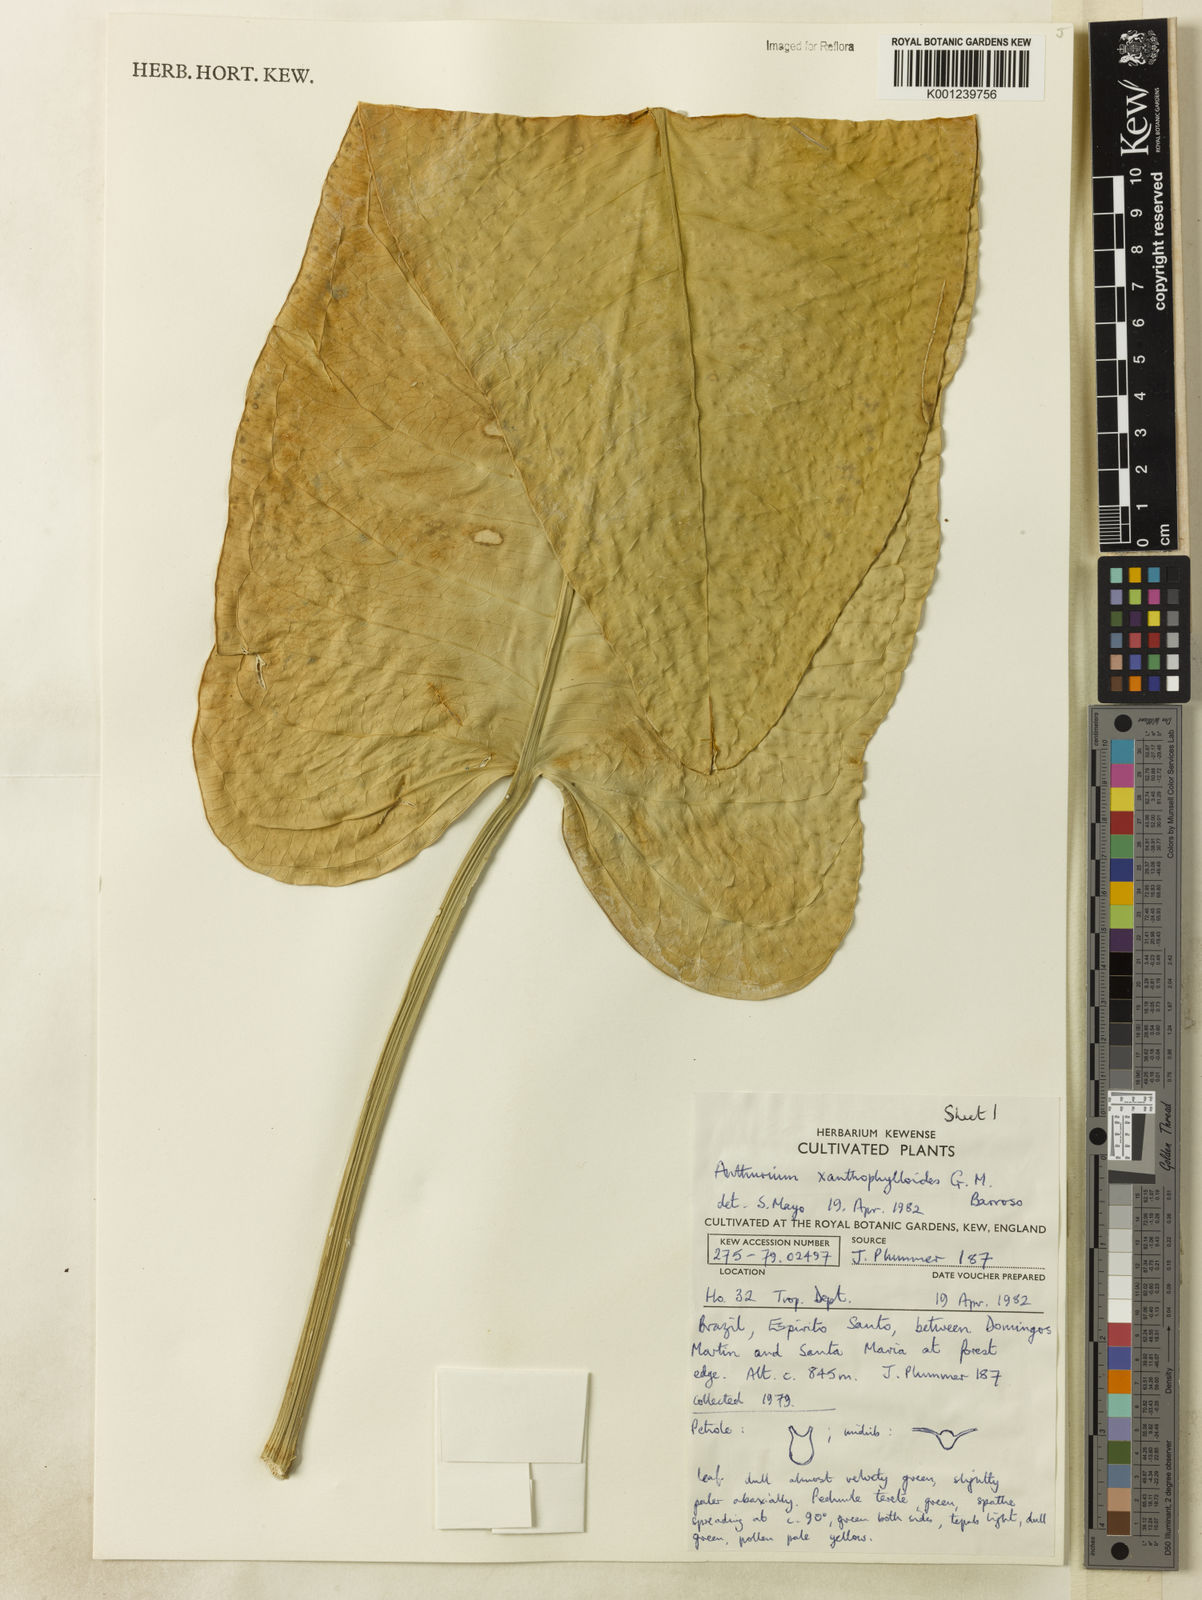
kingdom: Plantae
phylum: Tracheophyta
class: Liliopsida
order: Alismatales
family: Araceae
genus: Anthurium
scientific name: Anthurium xanthophylloides
